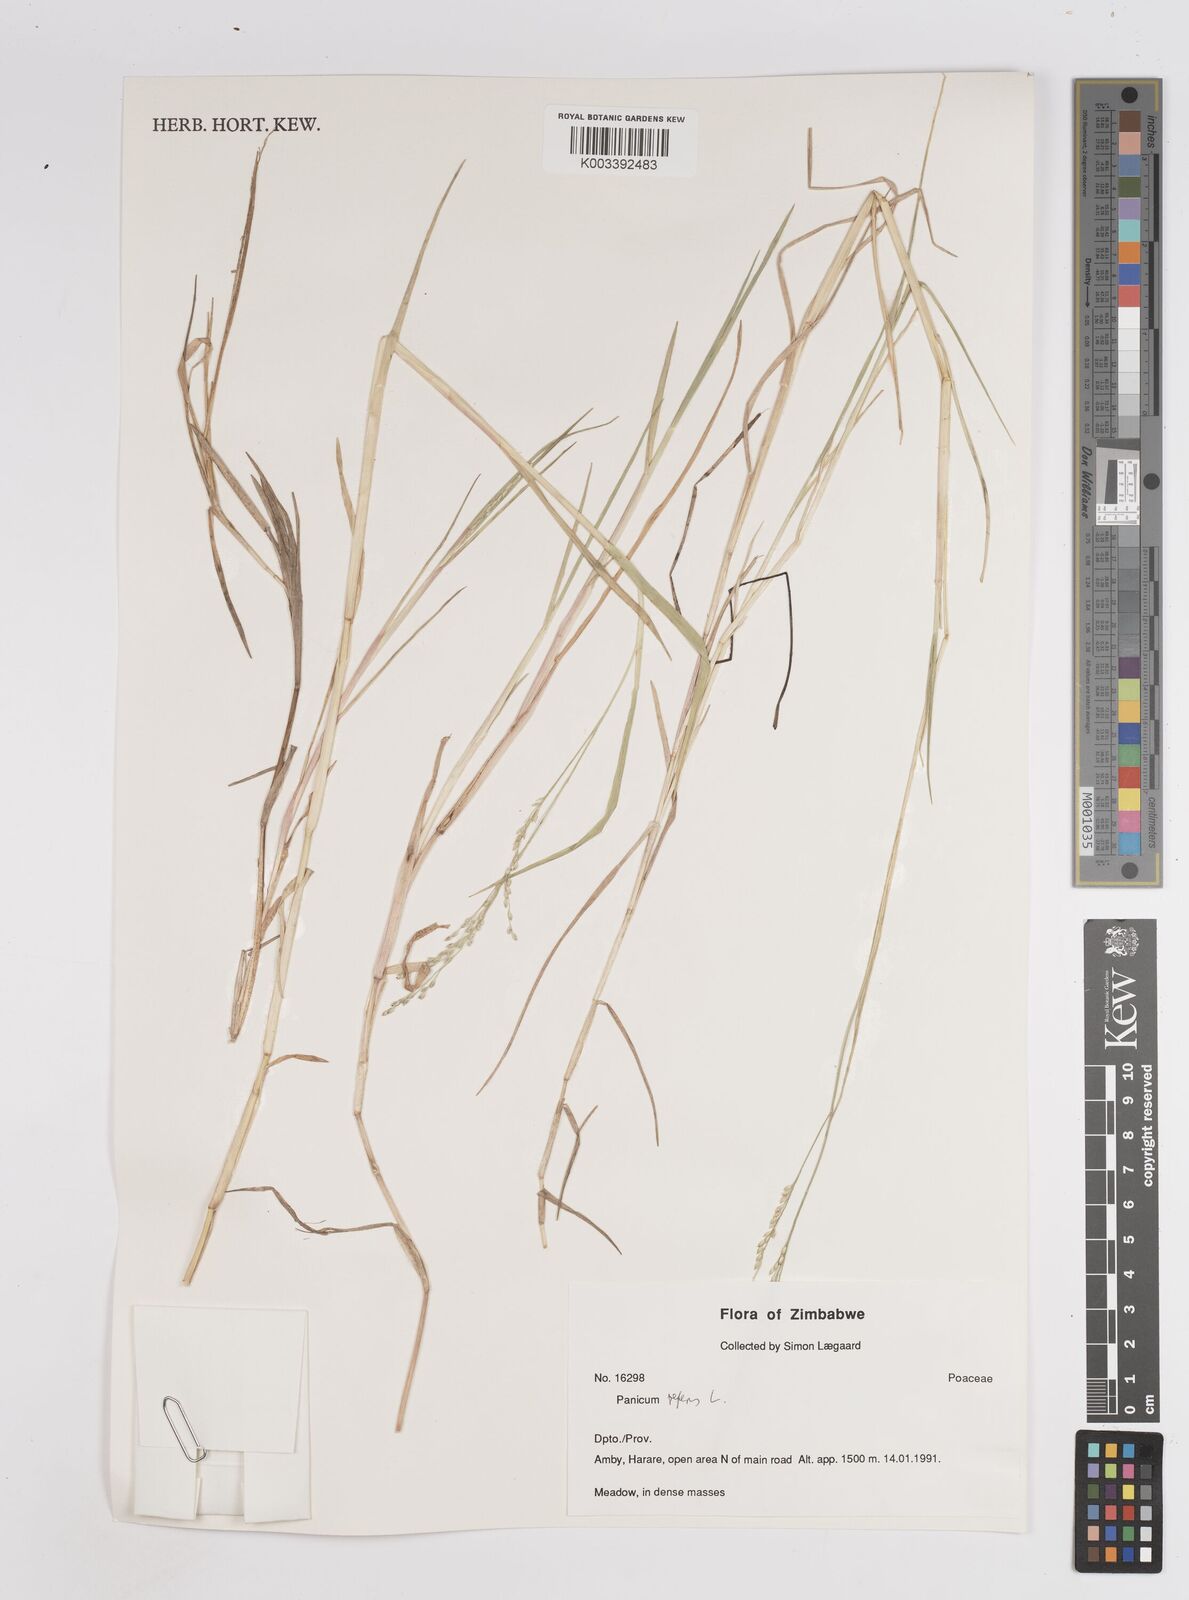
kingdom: Plantae
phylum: Tracheophyta
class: Liliopsida
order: Poales
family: Poaceae
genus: Panicum
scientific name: Panicum repens
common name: Torpedo grass
